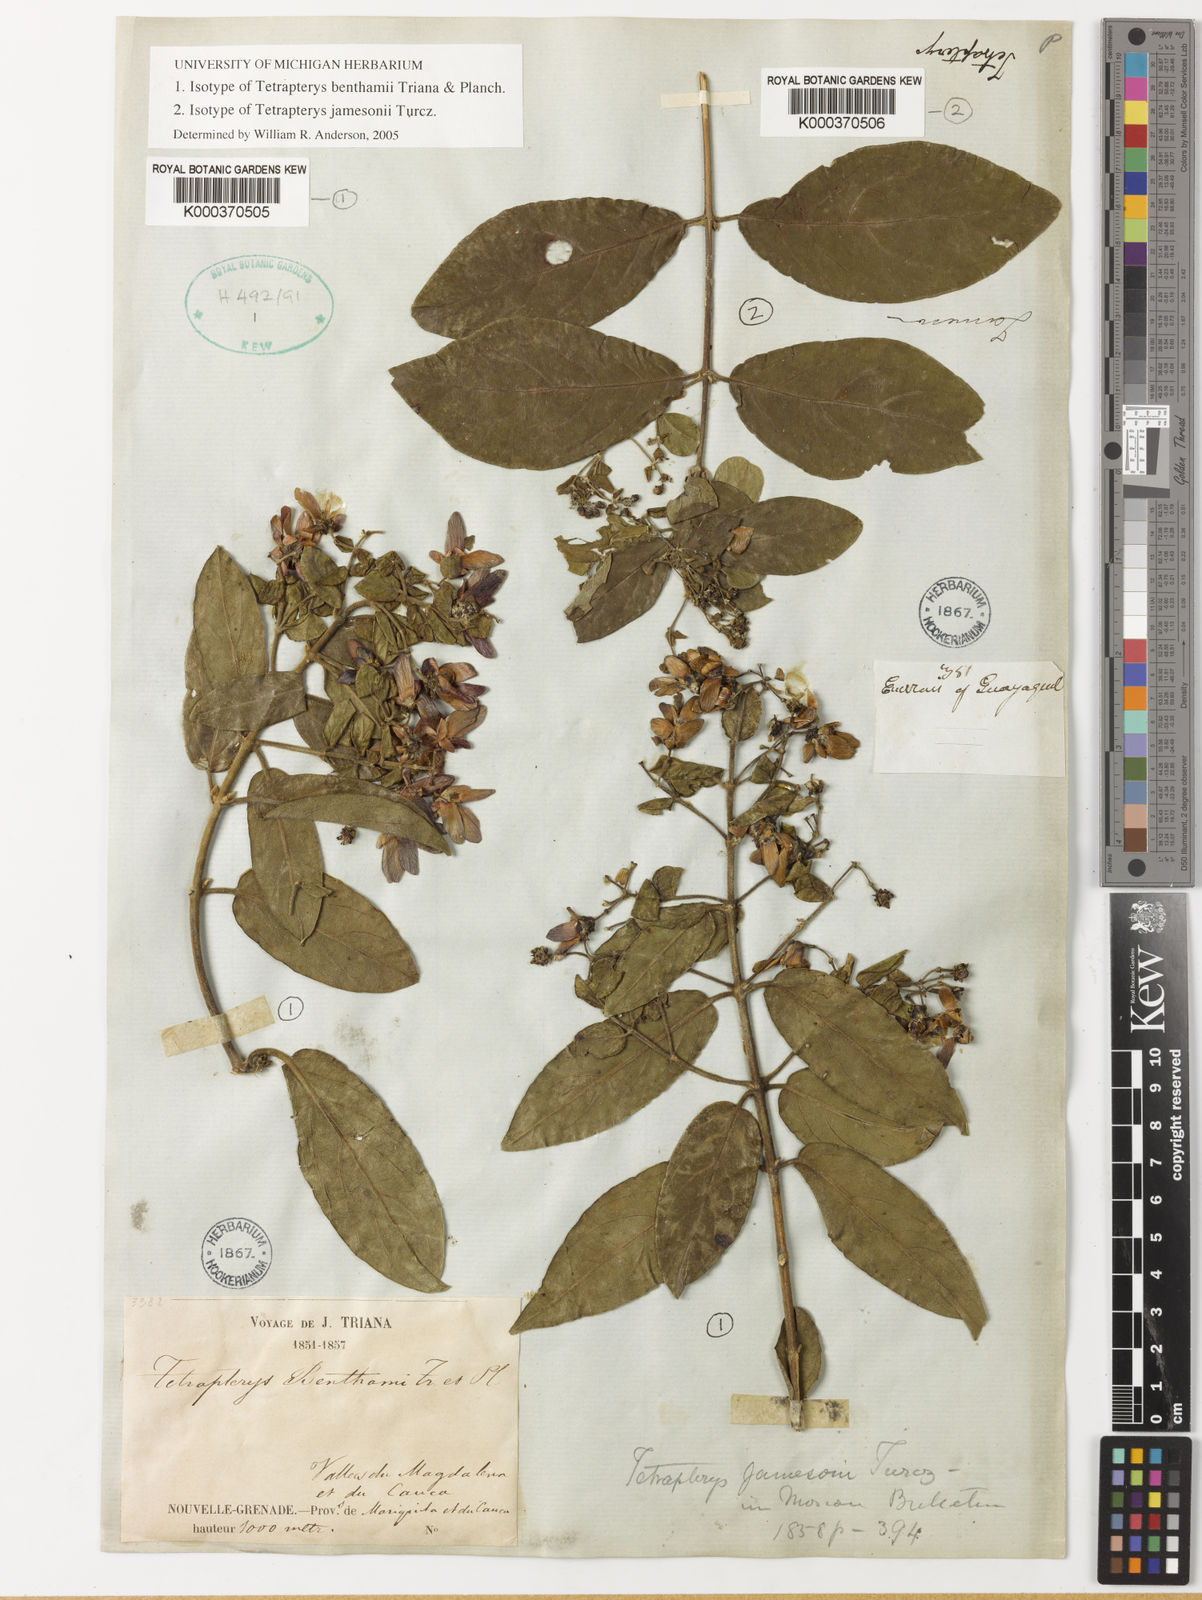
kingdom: Plantae
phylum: Tracheophyta
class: Magnoliopsida
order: Malpighiales
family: Malpighiaceae
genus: Tetrapterys
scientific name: Tetrapterys benthamii
